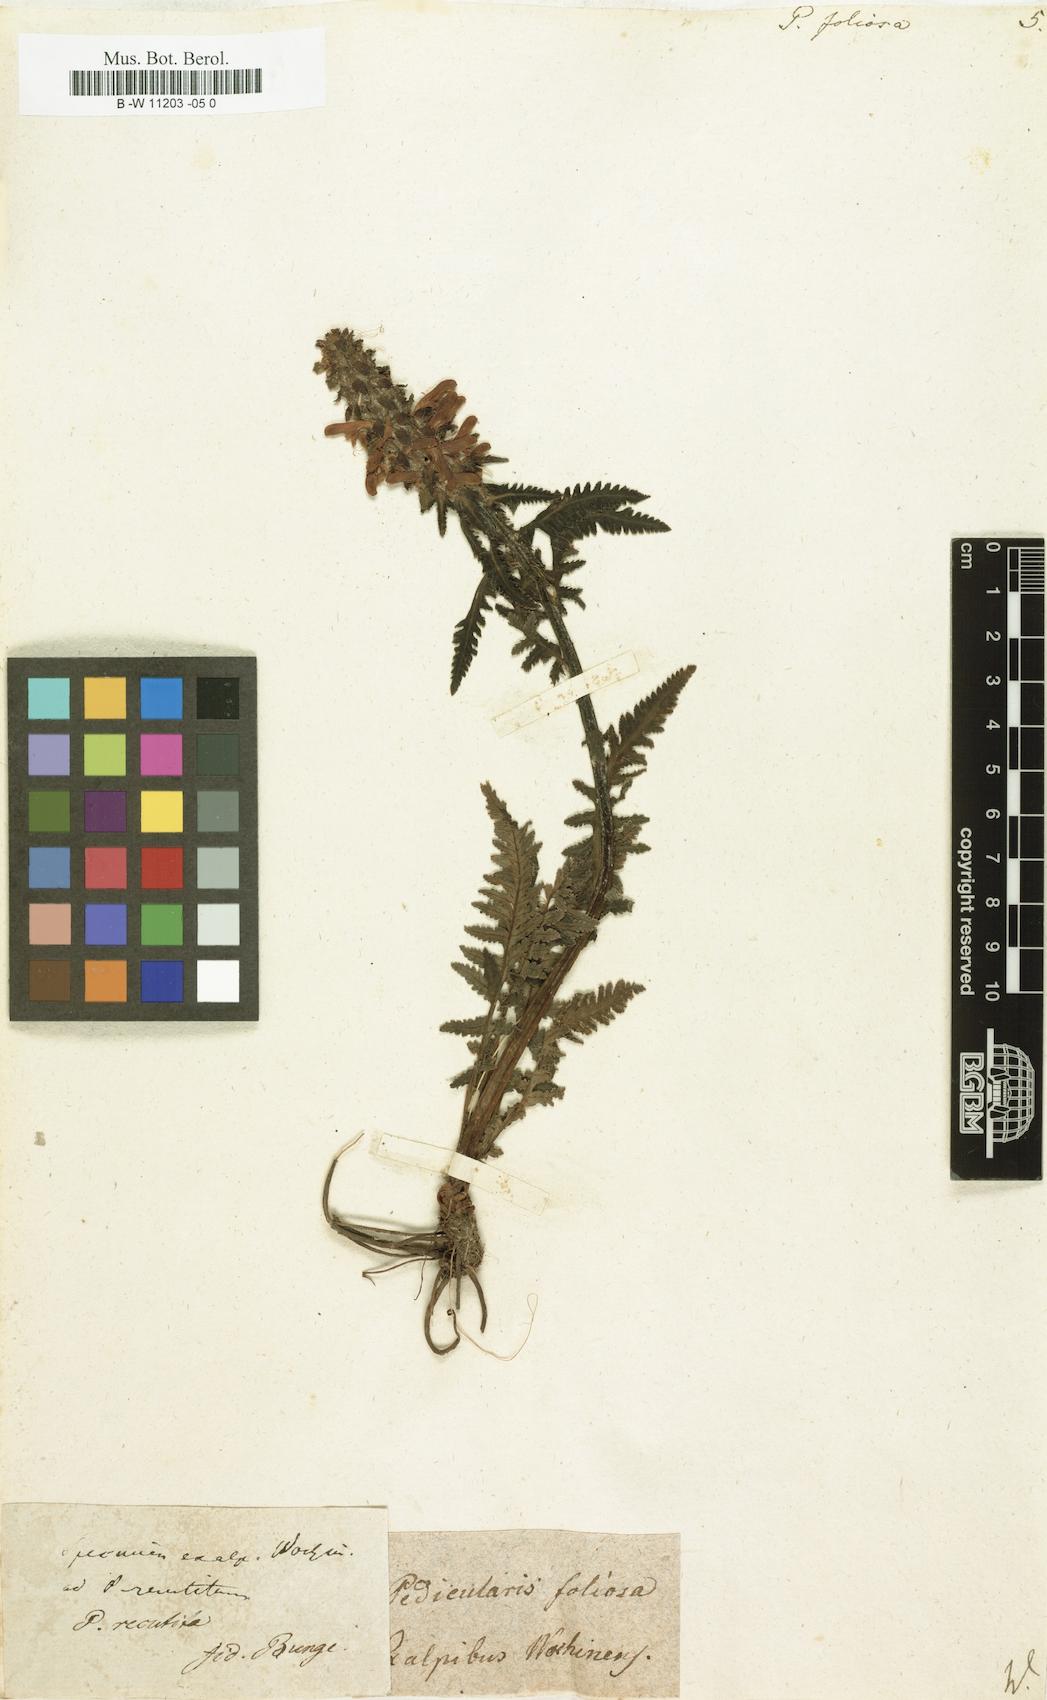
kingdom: Plantae
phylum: Tracheophyta
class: Magnoliopsida
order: Lamiales
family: Orobanchaceae
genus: Pedicularis
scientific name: Pedicularis foliosa
